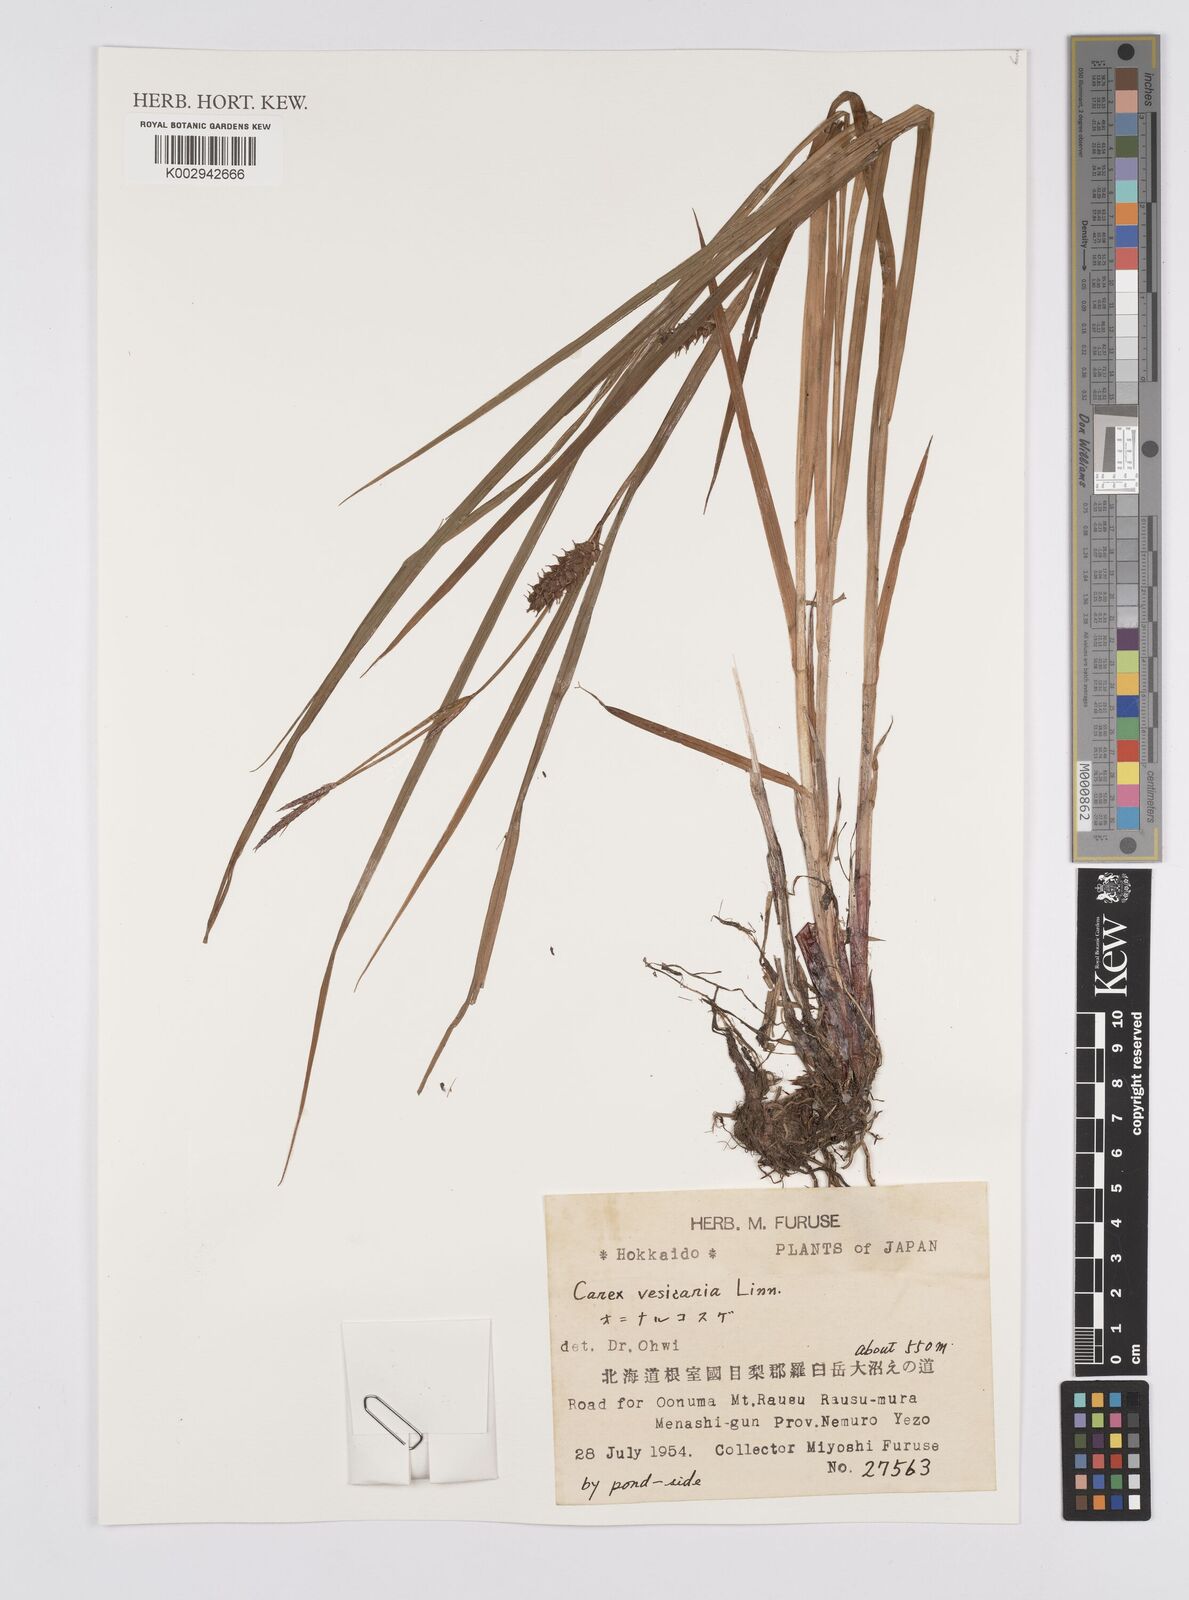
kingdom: Plantae
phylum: Tracheophyta
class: Liliopsida
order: Poales
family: Cyperaceae
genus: Carex
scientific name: Carex vesicaria
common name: Bladder-sedge
